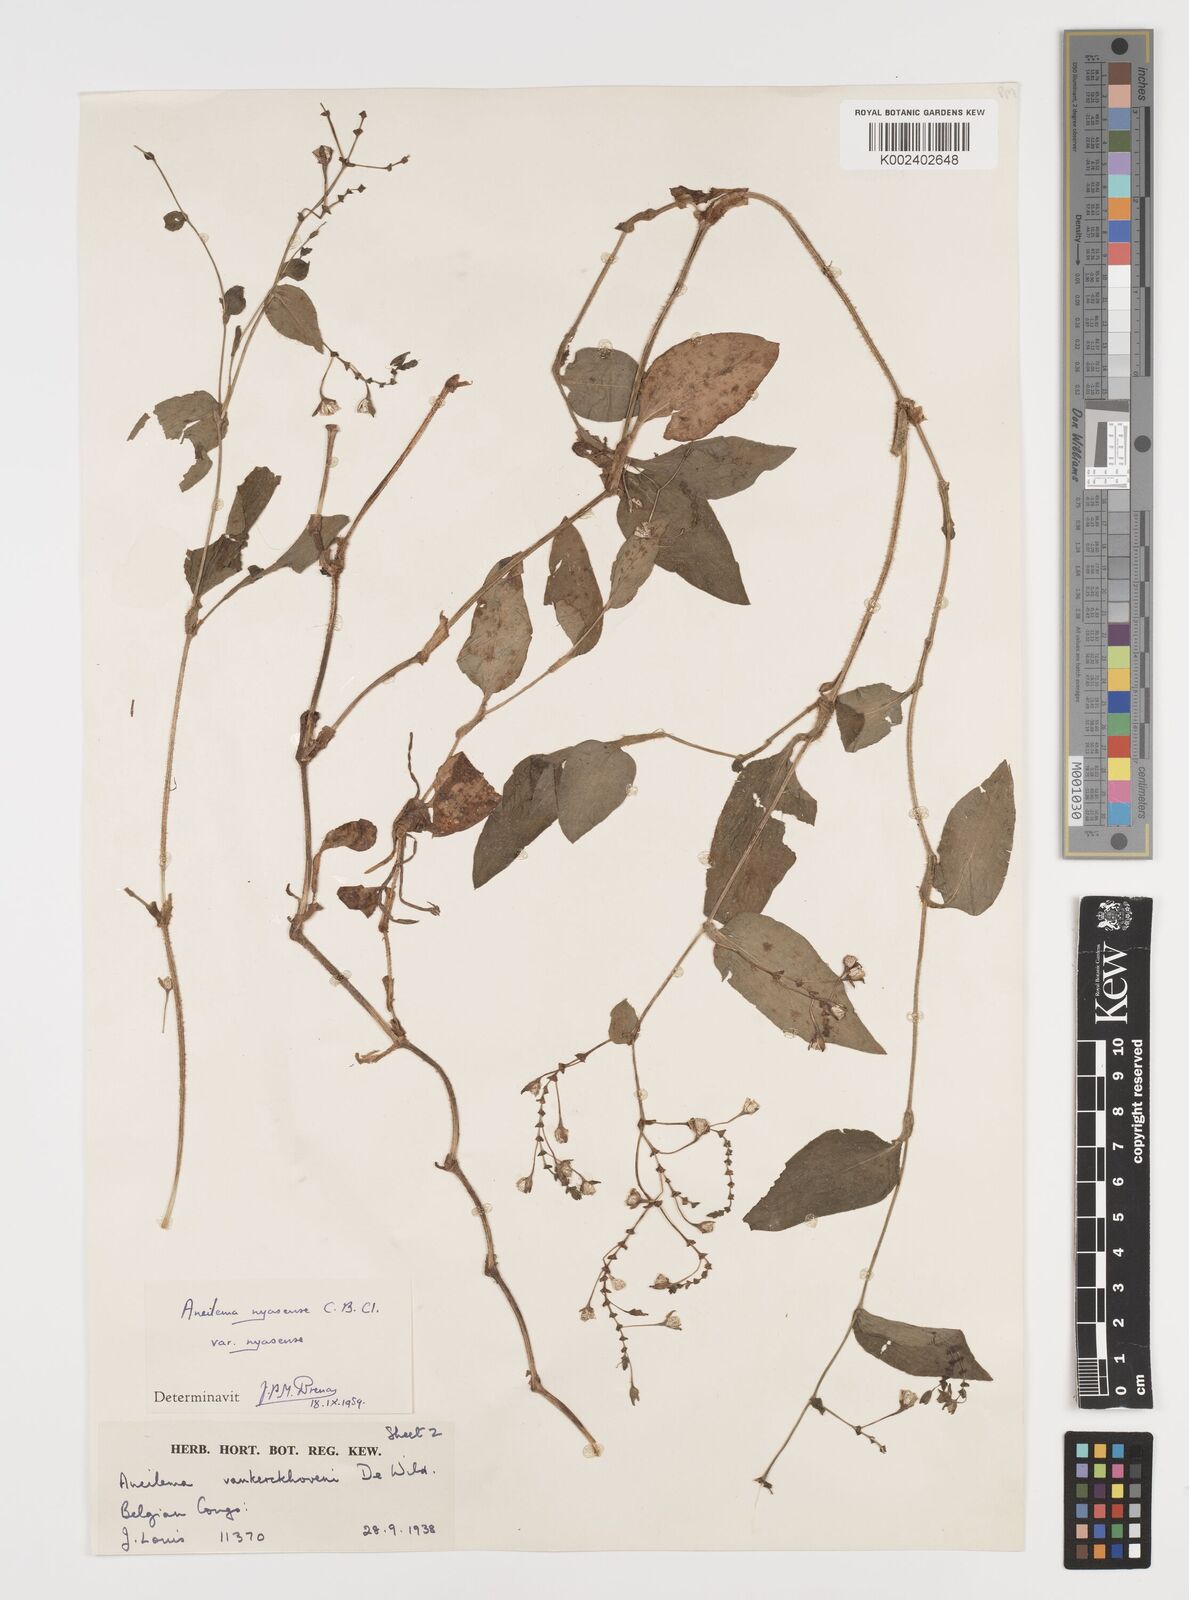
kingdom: Plantae
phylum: Tracheophyta
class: Liliopsida
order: Commelinales
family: Commelinaceae
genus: Aneilema
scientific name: Aneilema nyasense
